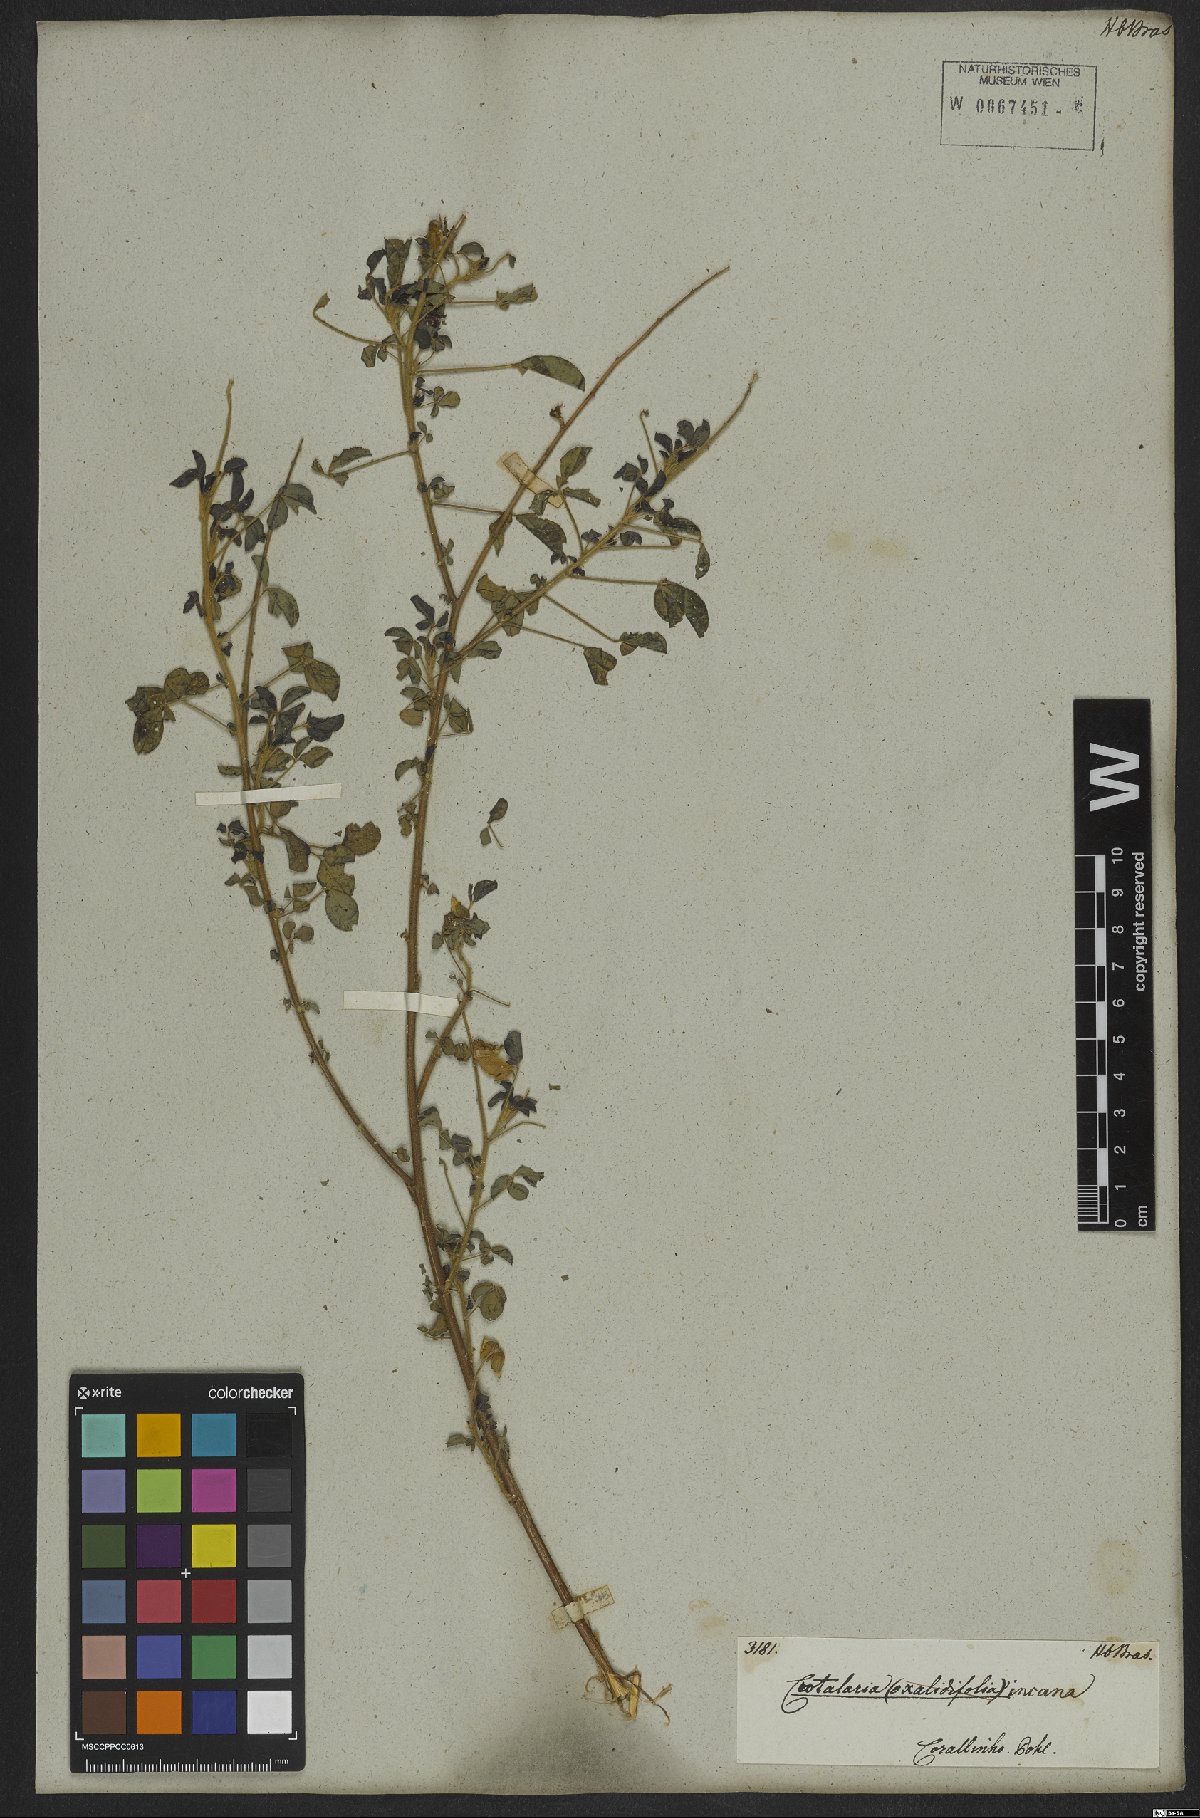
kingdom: Plantae
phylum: Tracheophyta
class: Magnoliopsida
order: Fabales
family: Fabaceae
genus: Crotalaria
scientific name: Crotalaria incana
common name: Shakeshake
